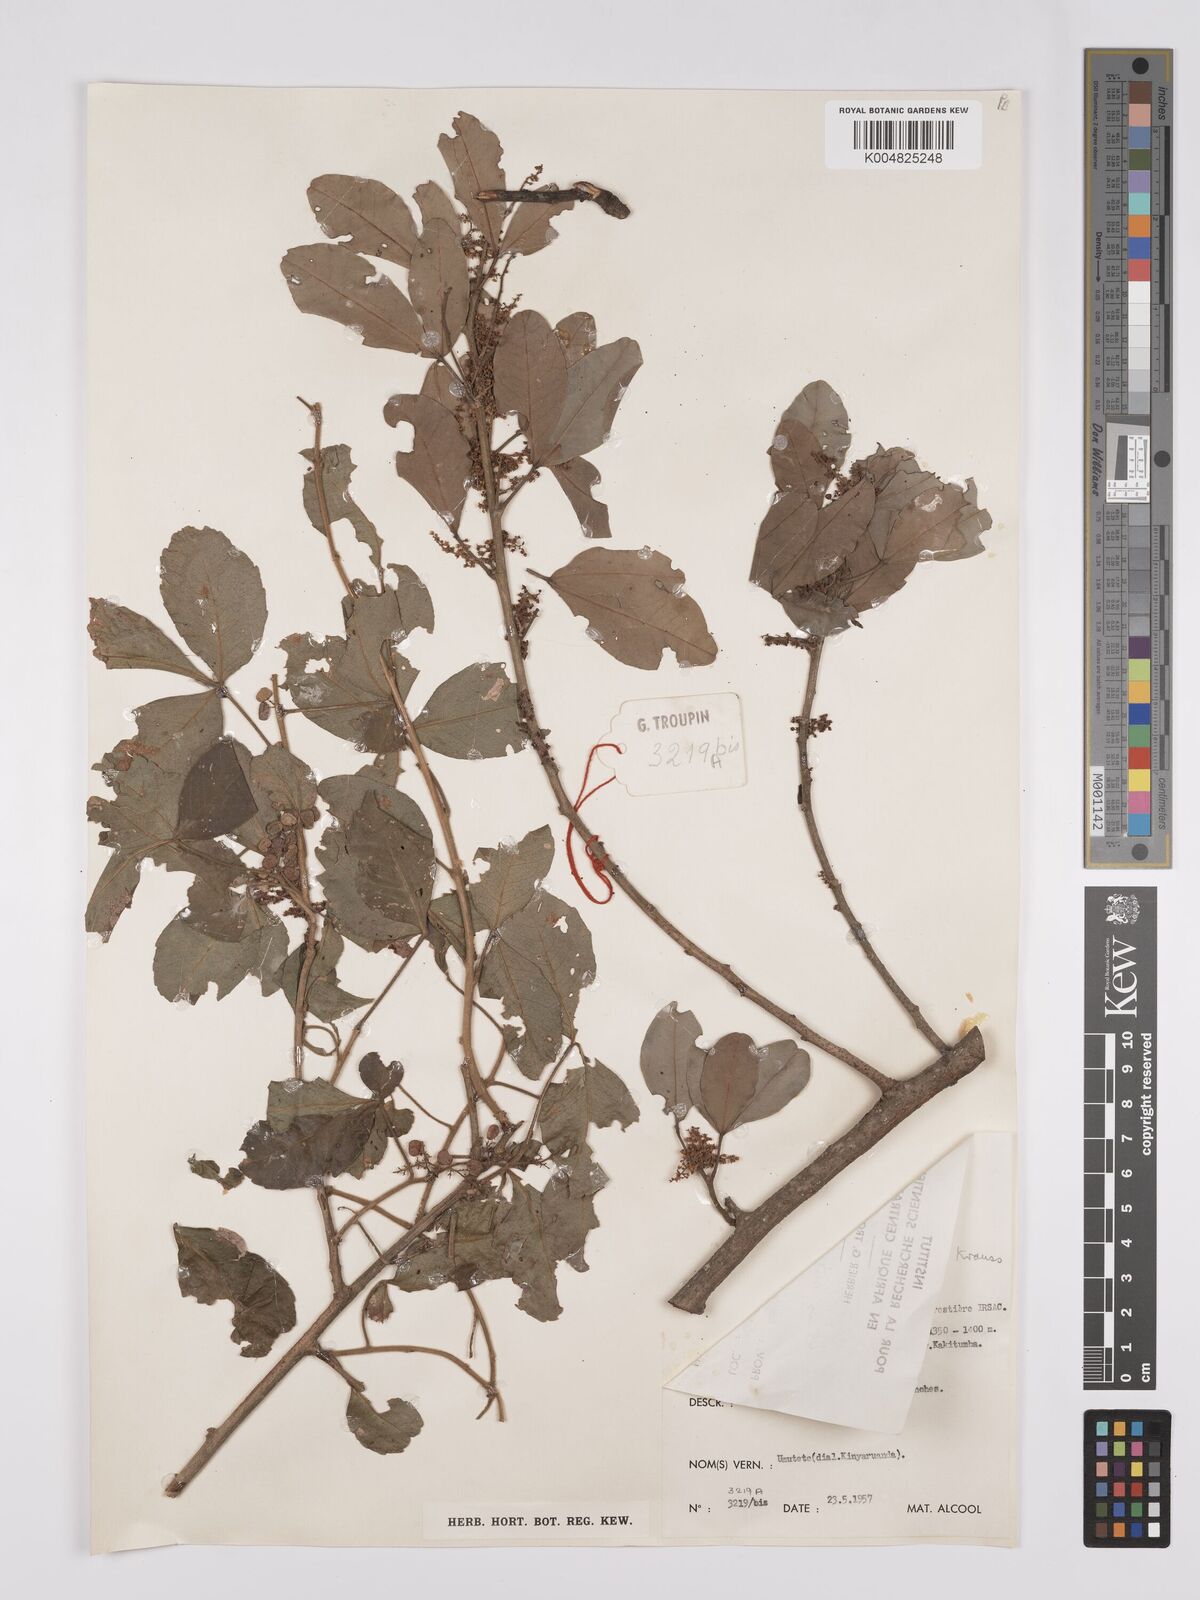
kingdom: Plantae
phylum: Tracheophyta
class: Magnoliopsida
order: Sapindales
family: Anacardiaceae
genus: Searsia
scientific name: Searsia natalensis
